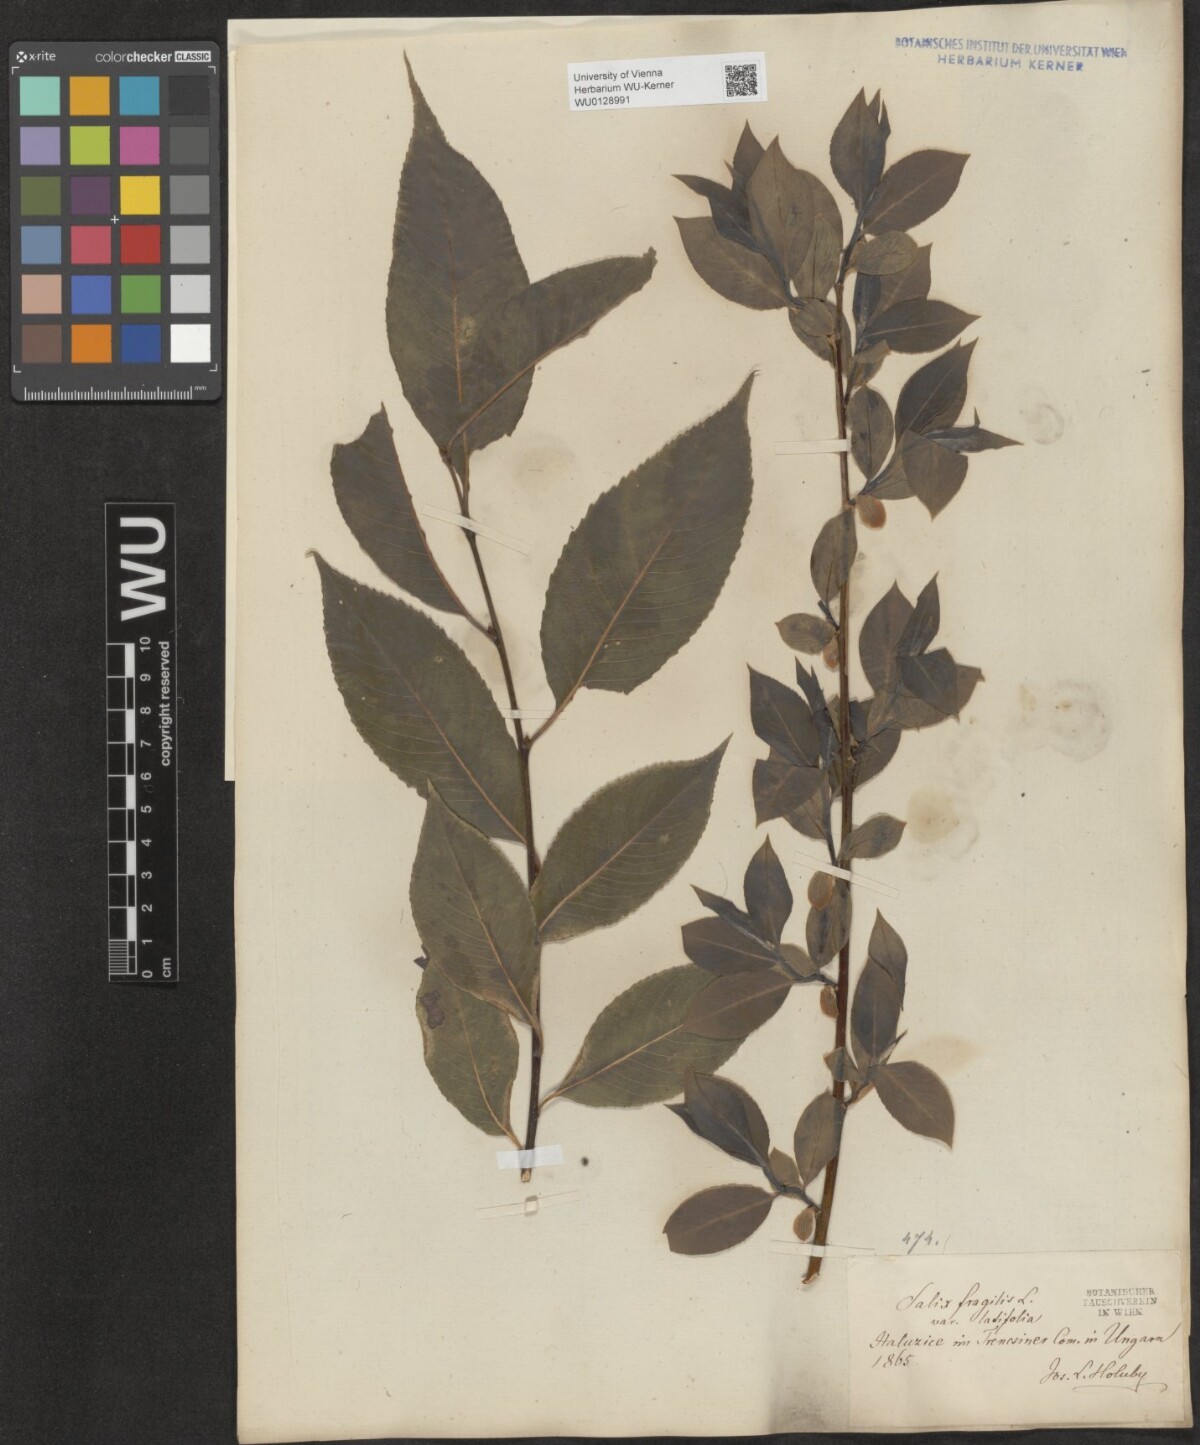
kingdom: Plantae
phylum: Tracheophyta
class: Magnoliopsida
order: Malpighiales
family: Salicaceae
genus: Salix
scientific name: Salix fragilis
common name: Crack willow
